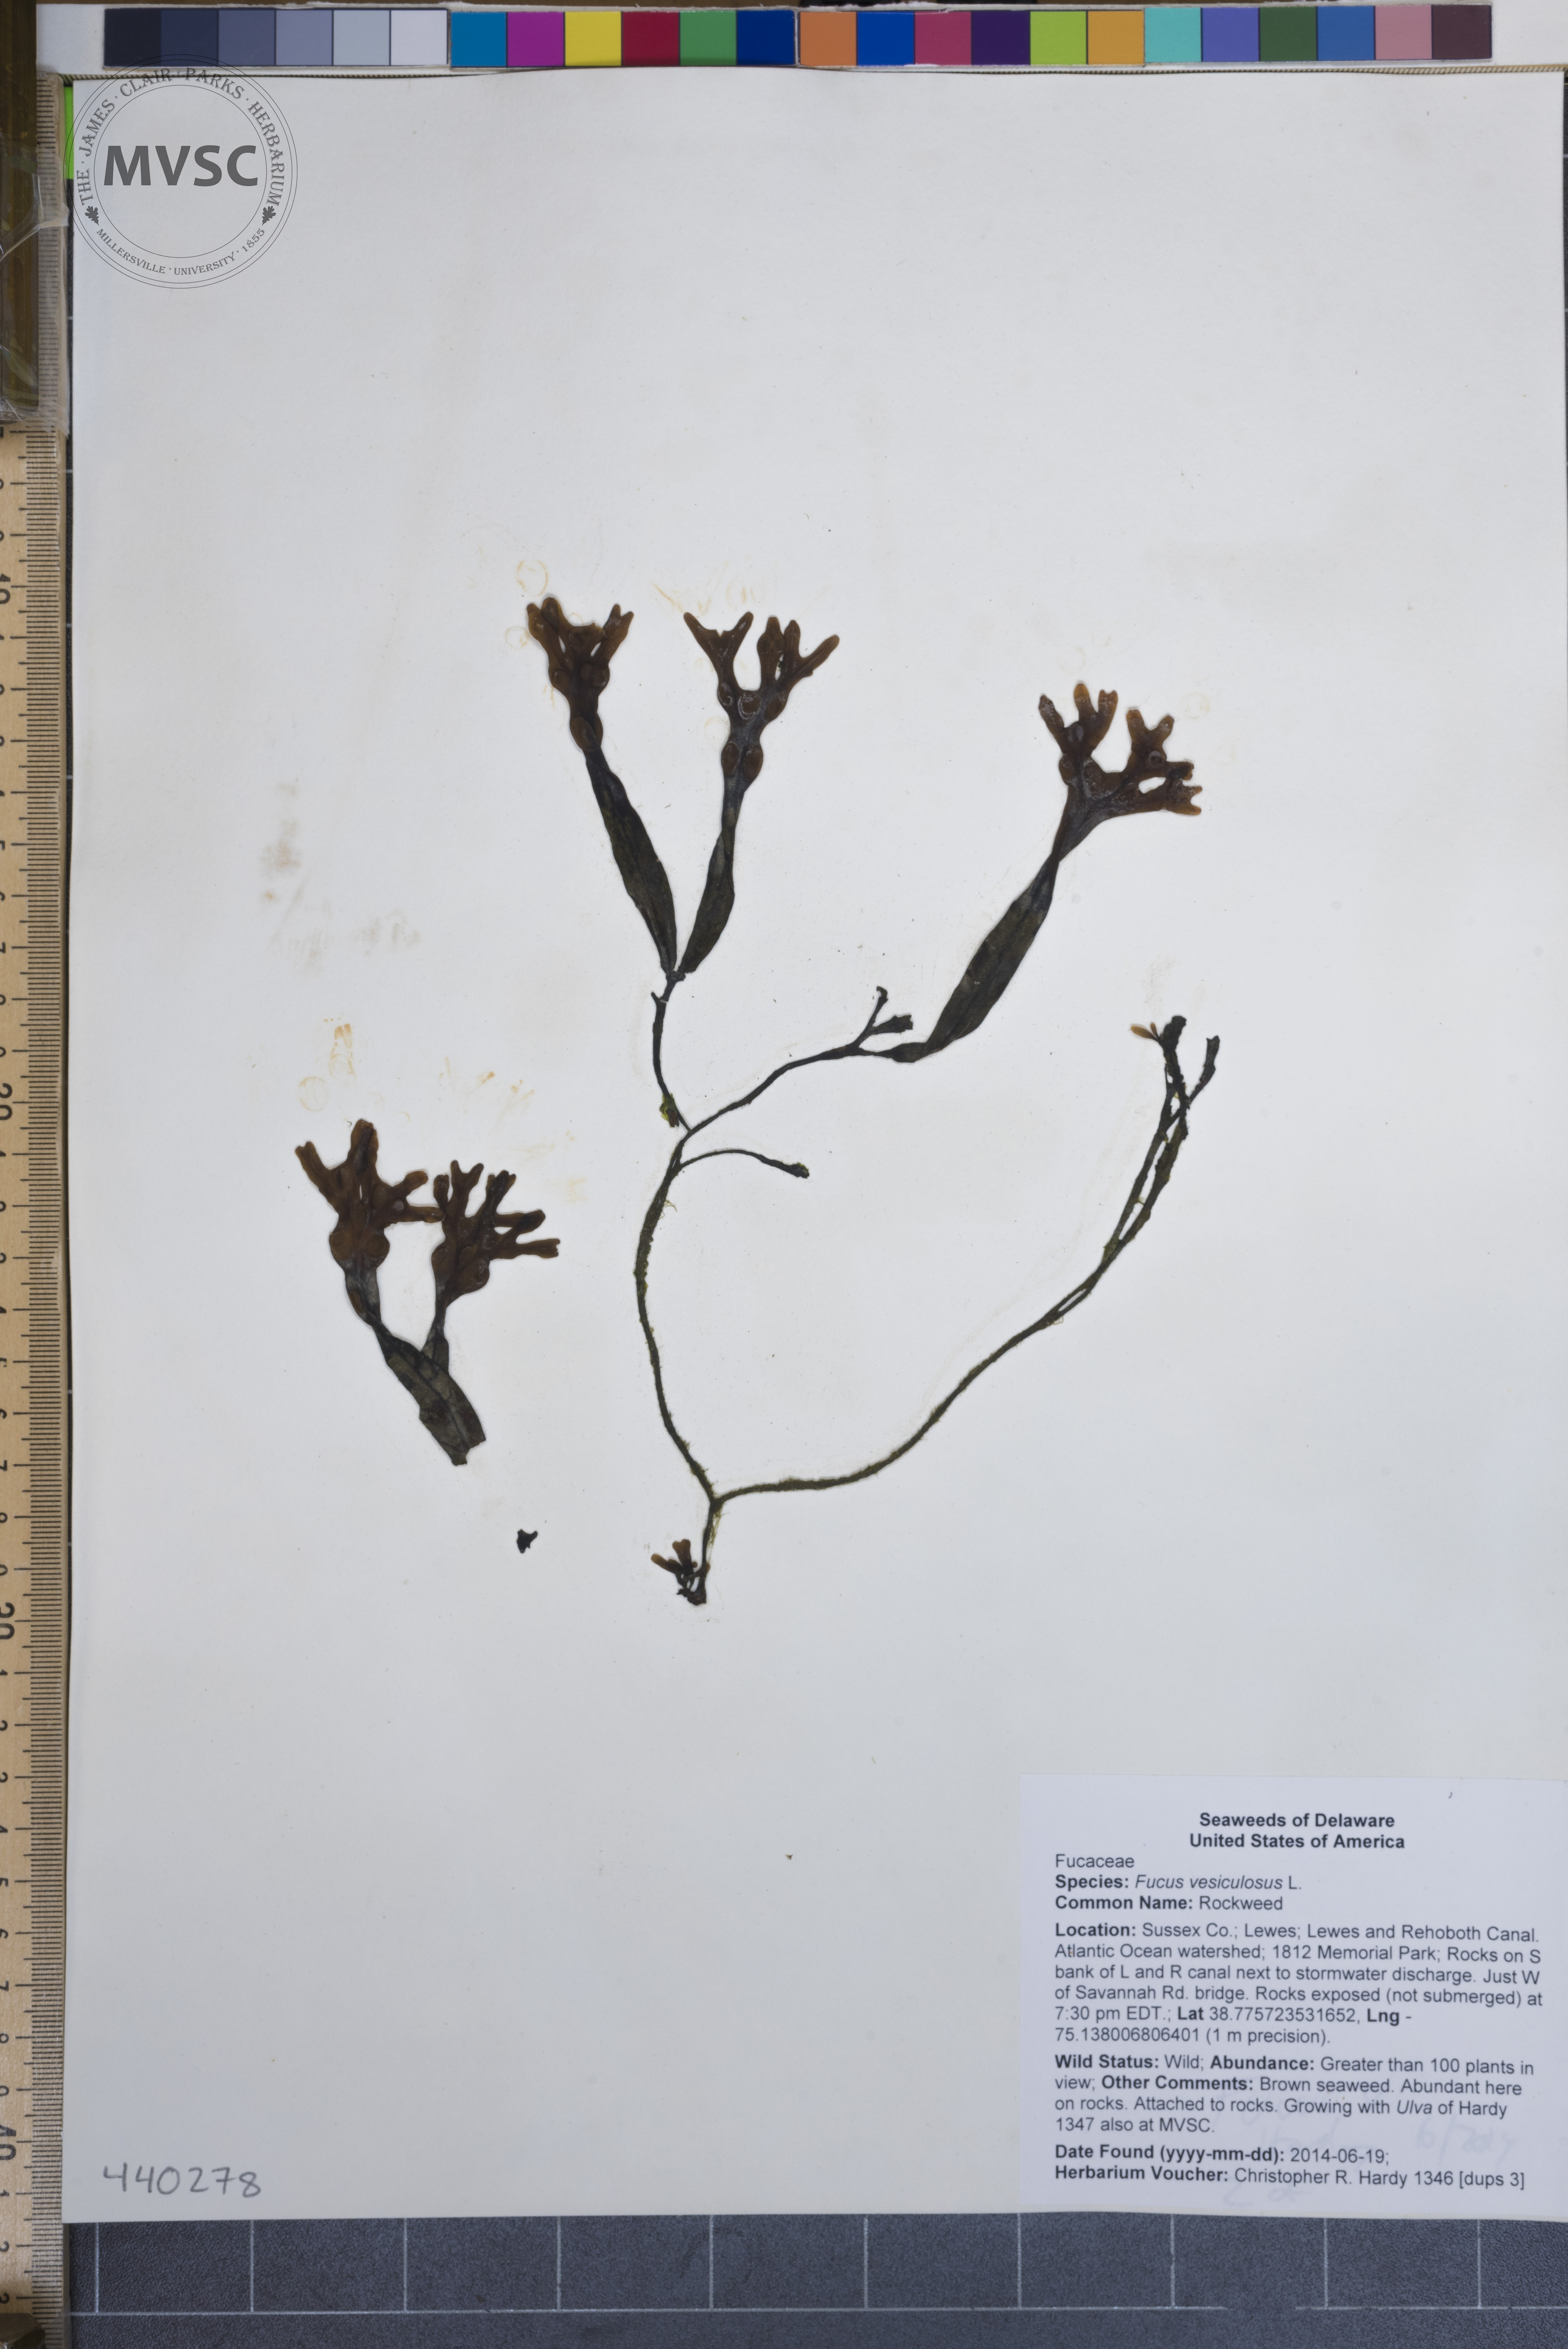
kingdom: Chromista
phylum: Ochrophyta
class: Phaeophyceae
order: Fucales
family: Fucaceae
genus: Fucus
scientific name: Fucus vesiculosus
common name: Rockweed
